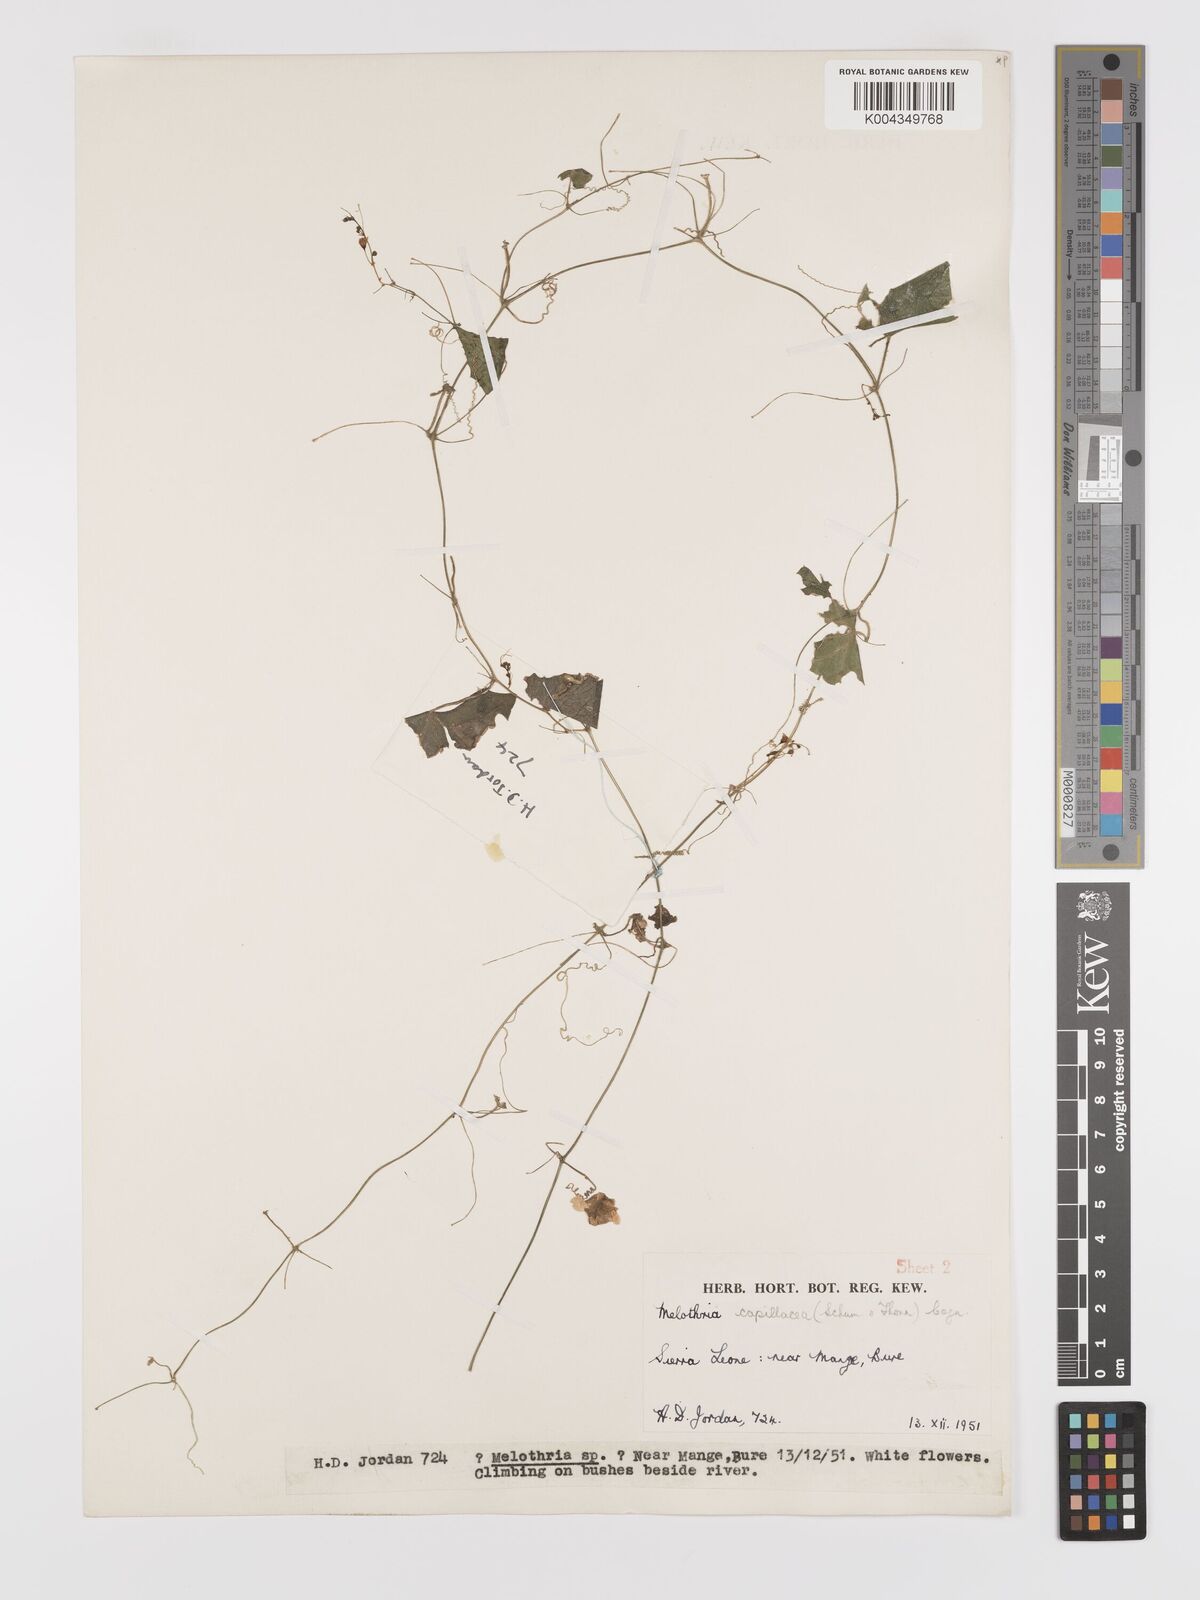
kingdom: Plantae
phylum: Tracheophyta
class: Magnoliopsida
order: Cucurbitales
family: Cucurbitaceae
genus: Zehneria
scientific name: Zehneria capillacea
